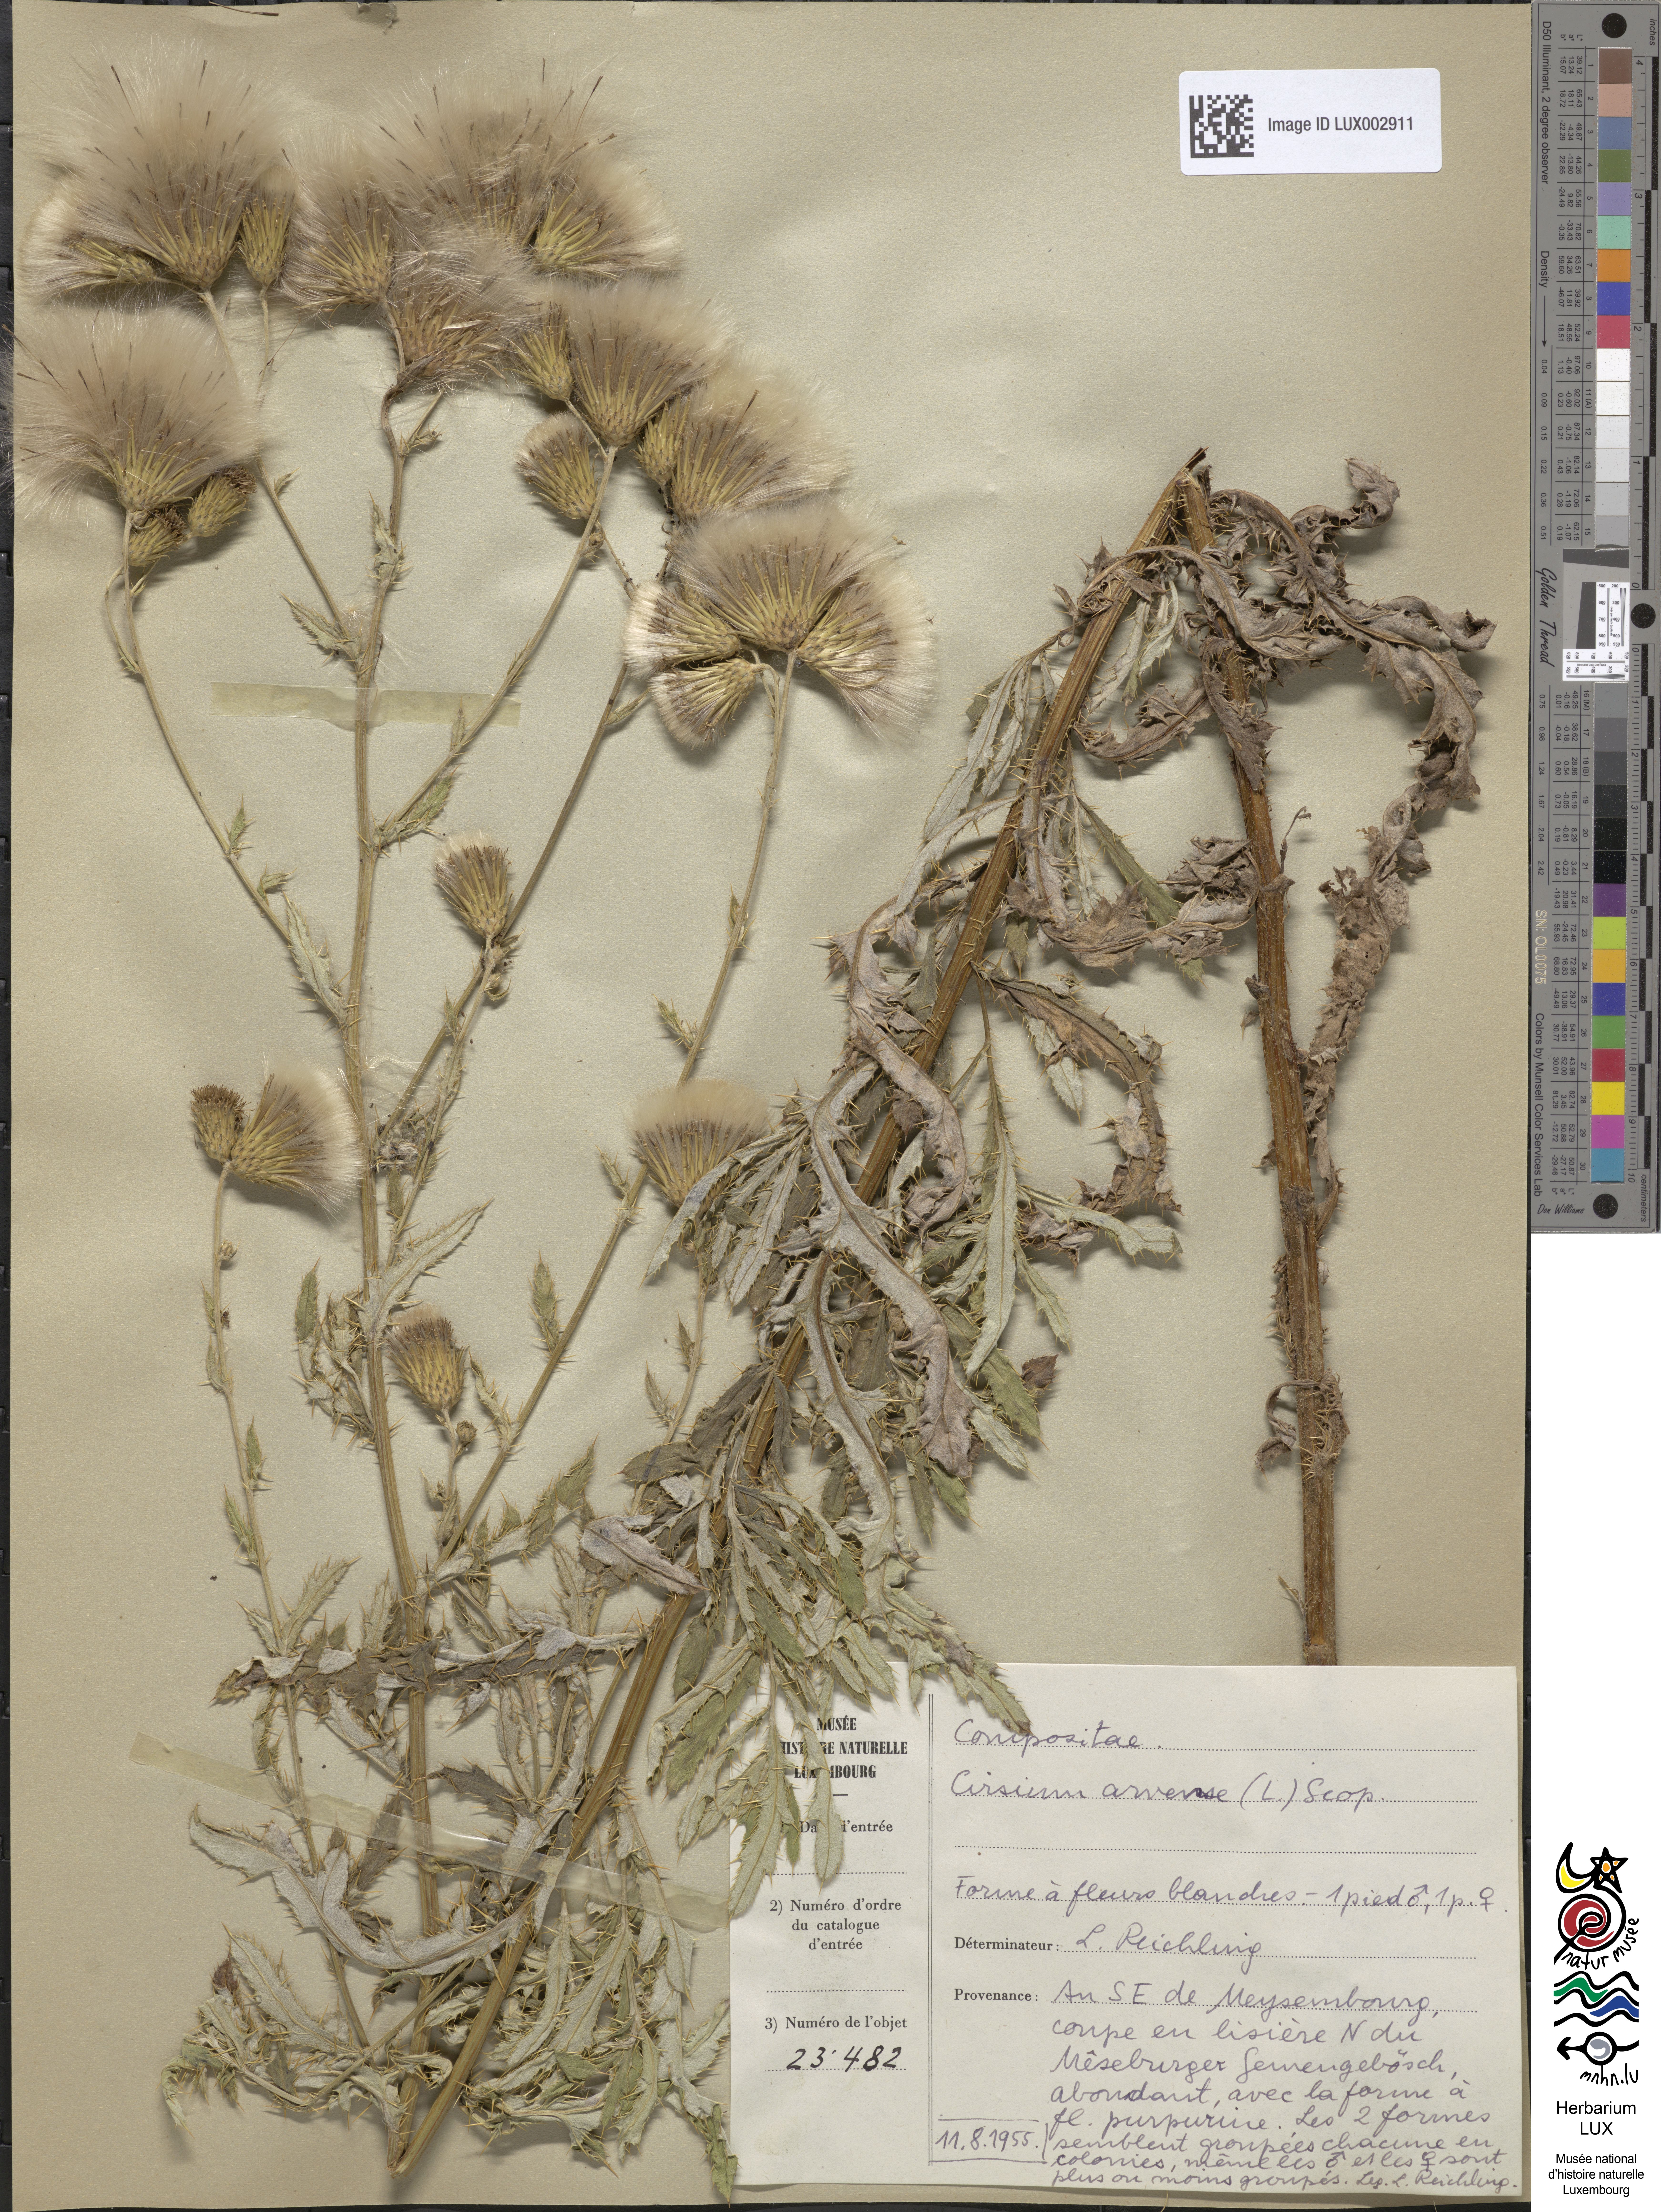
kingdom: Plantae
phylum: Tracheophyta
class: Magnoliopsida
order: Asterales
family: Asteraceae
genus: Cirsium
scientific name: Cirsium arvense
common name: Creeping thistle
